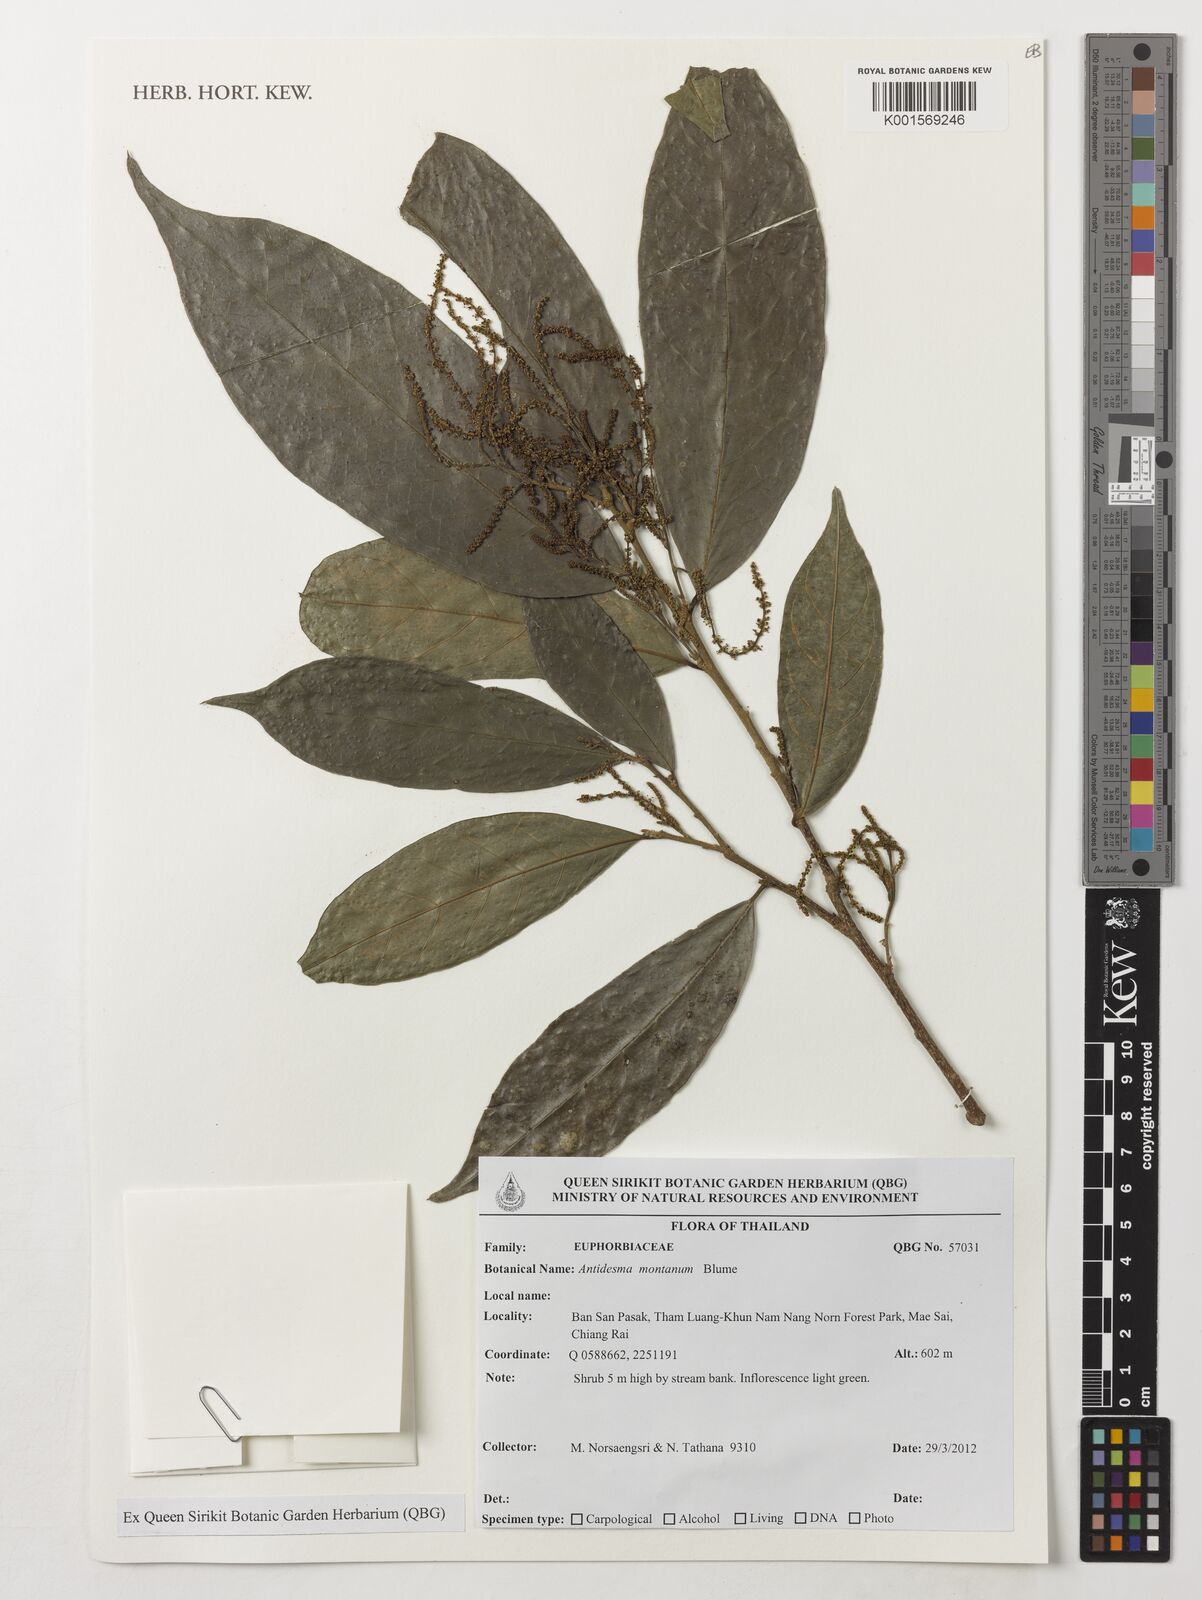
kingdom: Plantae
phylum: Tracheophyta
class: Magnoliopsida
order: Malpighiales
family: Phyllanthaceae
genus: Antidesma
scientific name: Antidesma montanum
